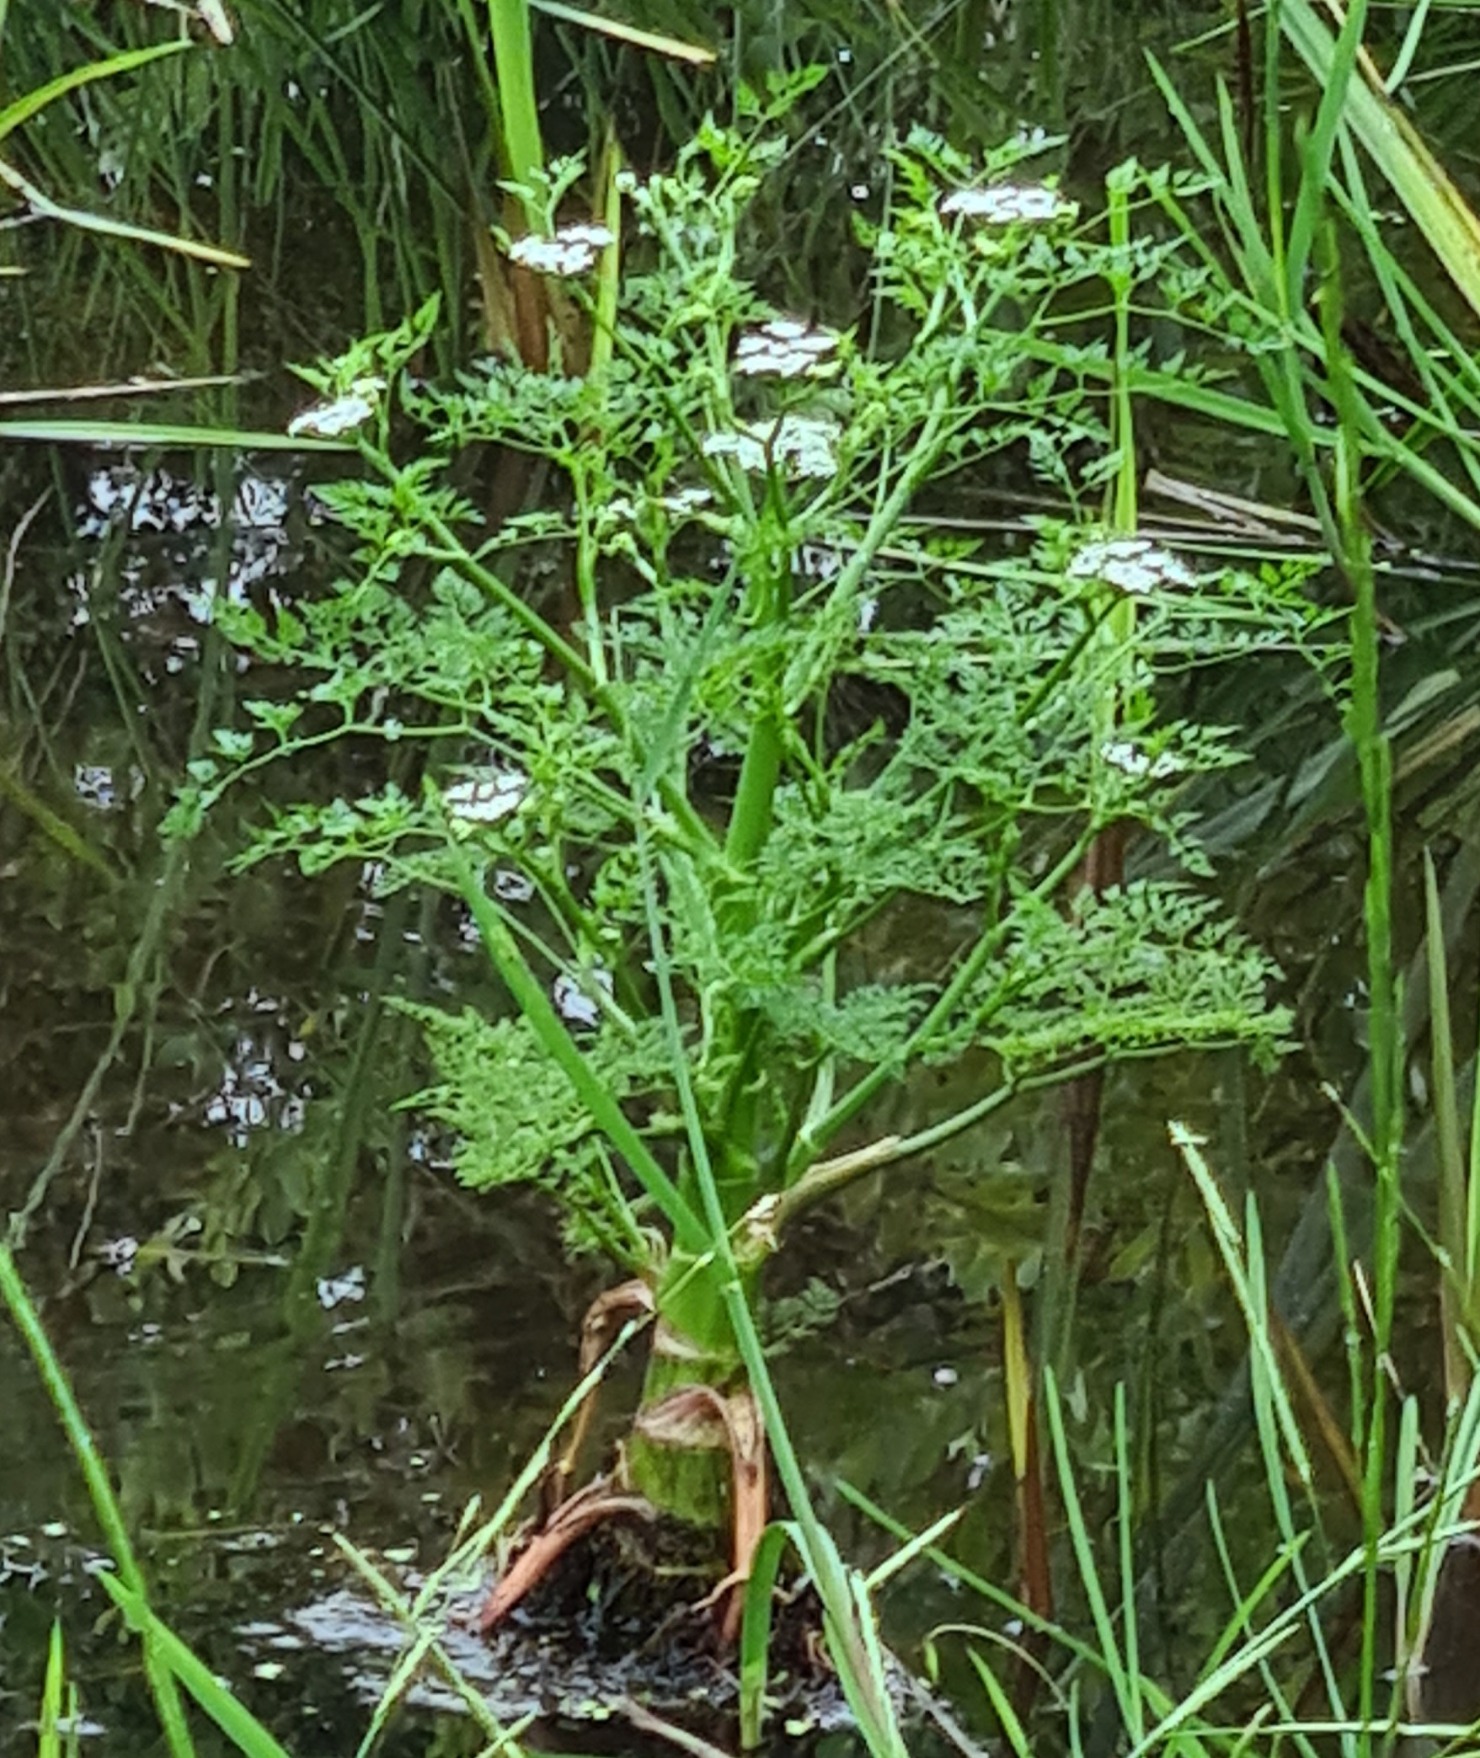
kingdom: Plantae
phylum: Tracheophyta
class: Magnoliopsida
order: Apiales
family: Apiaceae
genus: Oenanthe
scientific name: Oenanthe aquatica
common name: Billebo-klaseskærm
